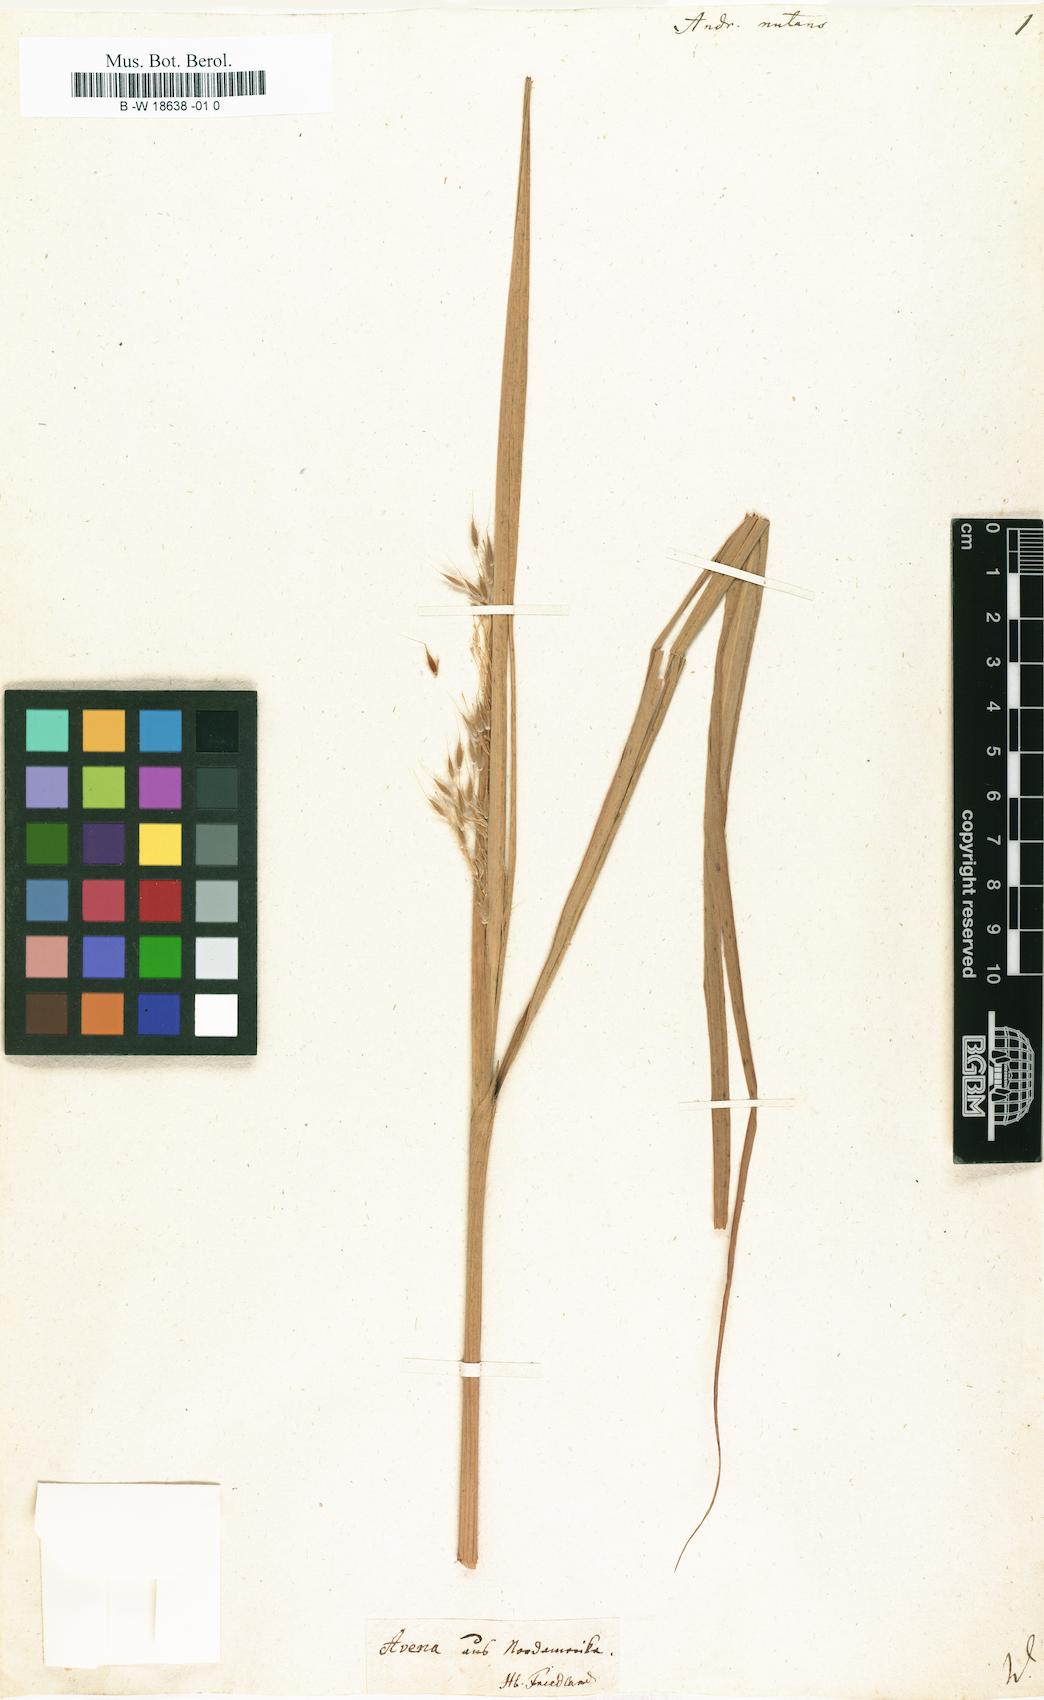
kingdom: Plantae
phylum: Tracheophyta
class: Liliopsida
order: Poales
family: Poaceae
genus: Sorghastrum
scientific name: Sorghastrum nutans
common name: Indian grass
